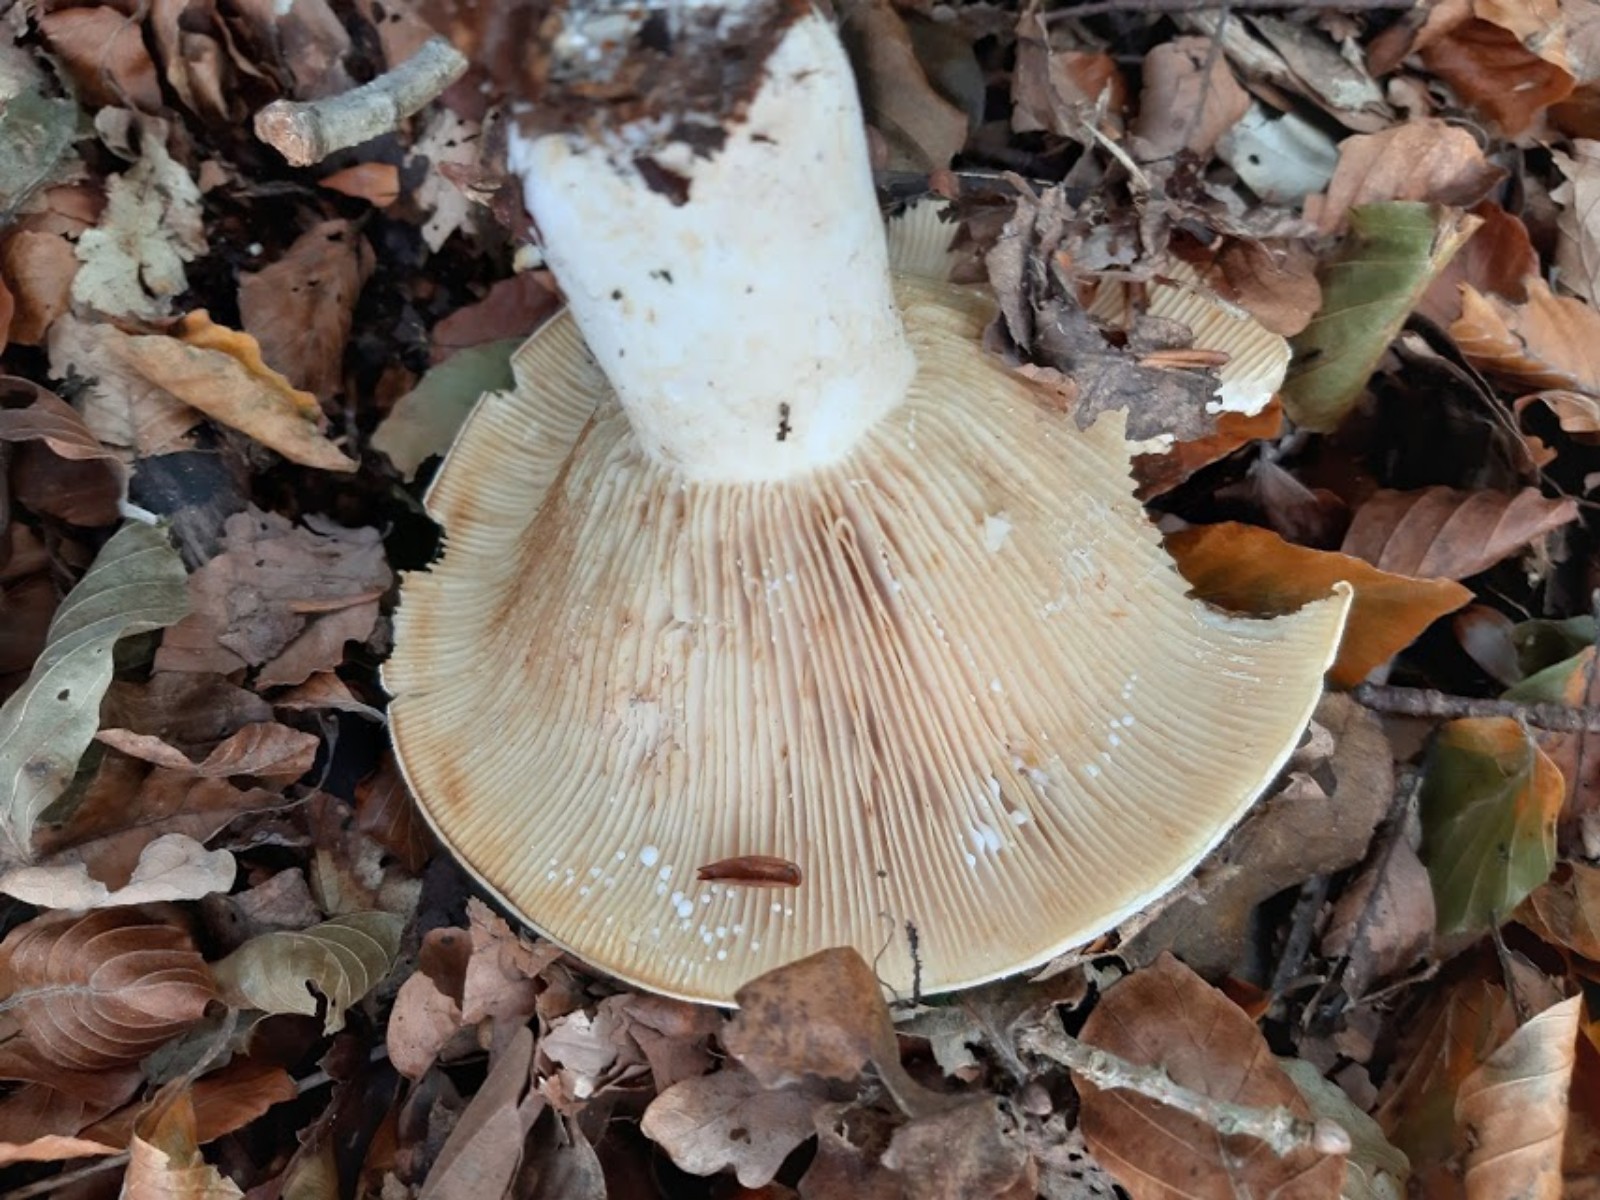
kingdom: Fungi
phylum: Basidiomycota
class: Agaricomycetes
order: Russulales
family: Russulaceae
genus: Lactifluus
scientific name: Lactifluus vellereus
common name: hvidfiltet mælkehat
